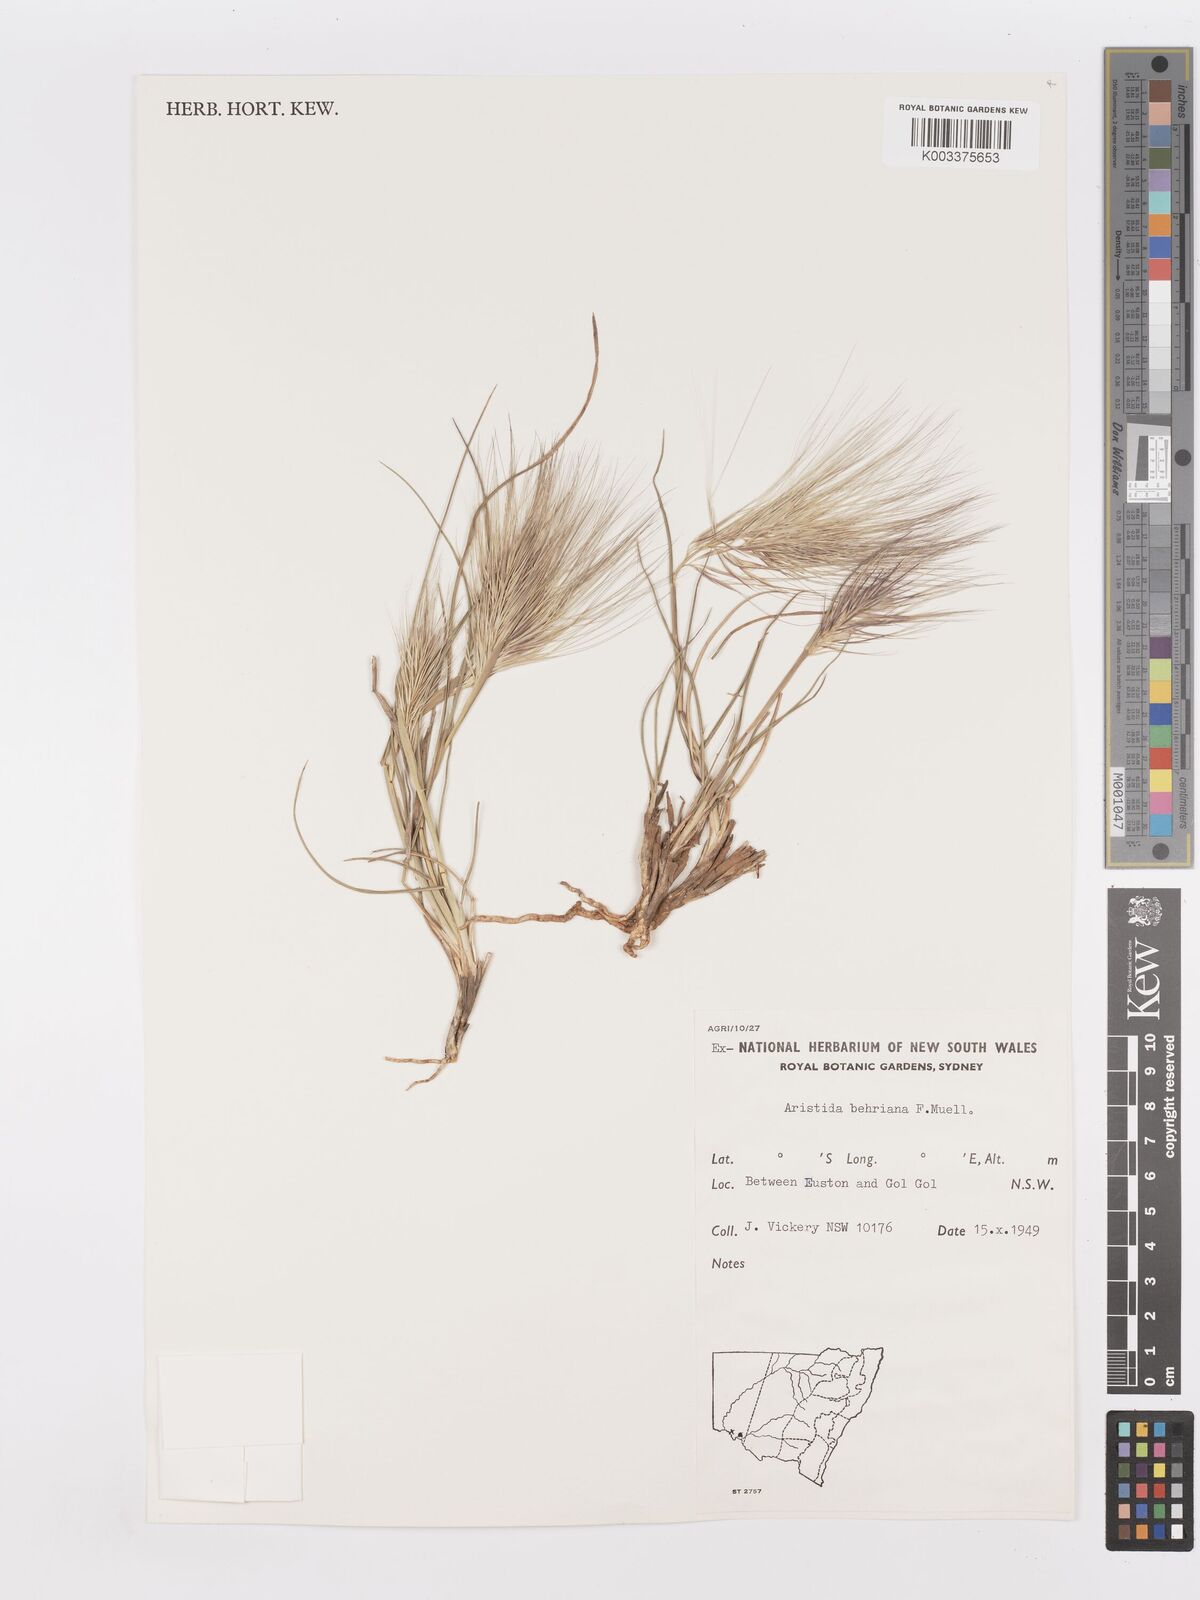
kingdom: Plantae
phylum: Tracheophyta
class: Liliopsida
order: Poales
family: Poaceae
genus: Aristida
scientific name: Aristida behriana
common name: Long-awn wire grass
